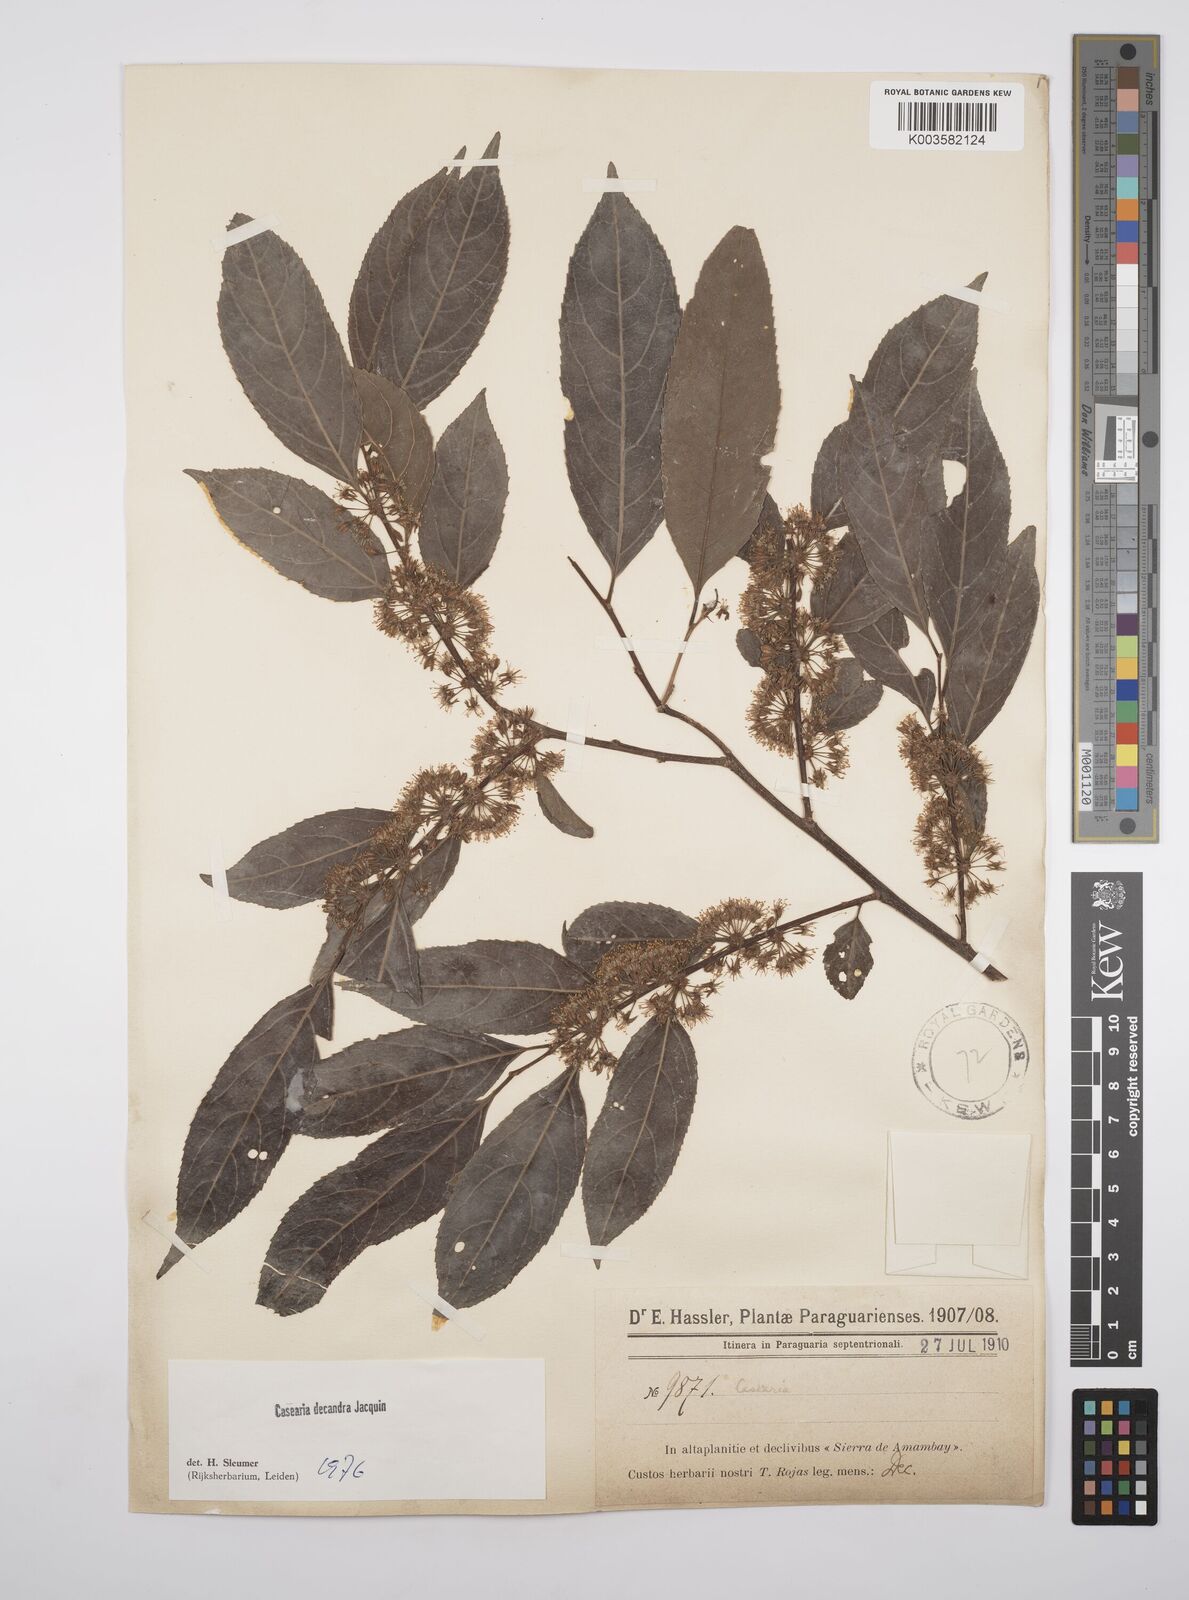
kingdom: Plantae
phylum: Tracheophyta
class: Magnoliopsida
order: Malpighiales
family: Salicaceae
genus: Casearia
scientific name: Casearia
